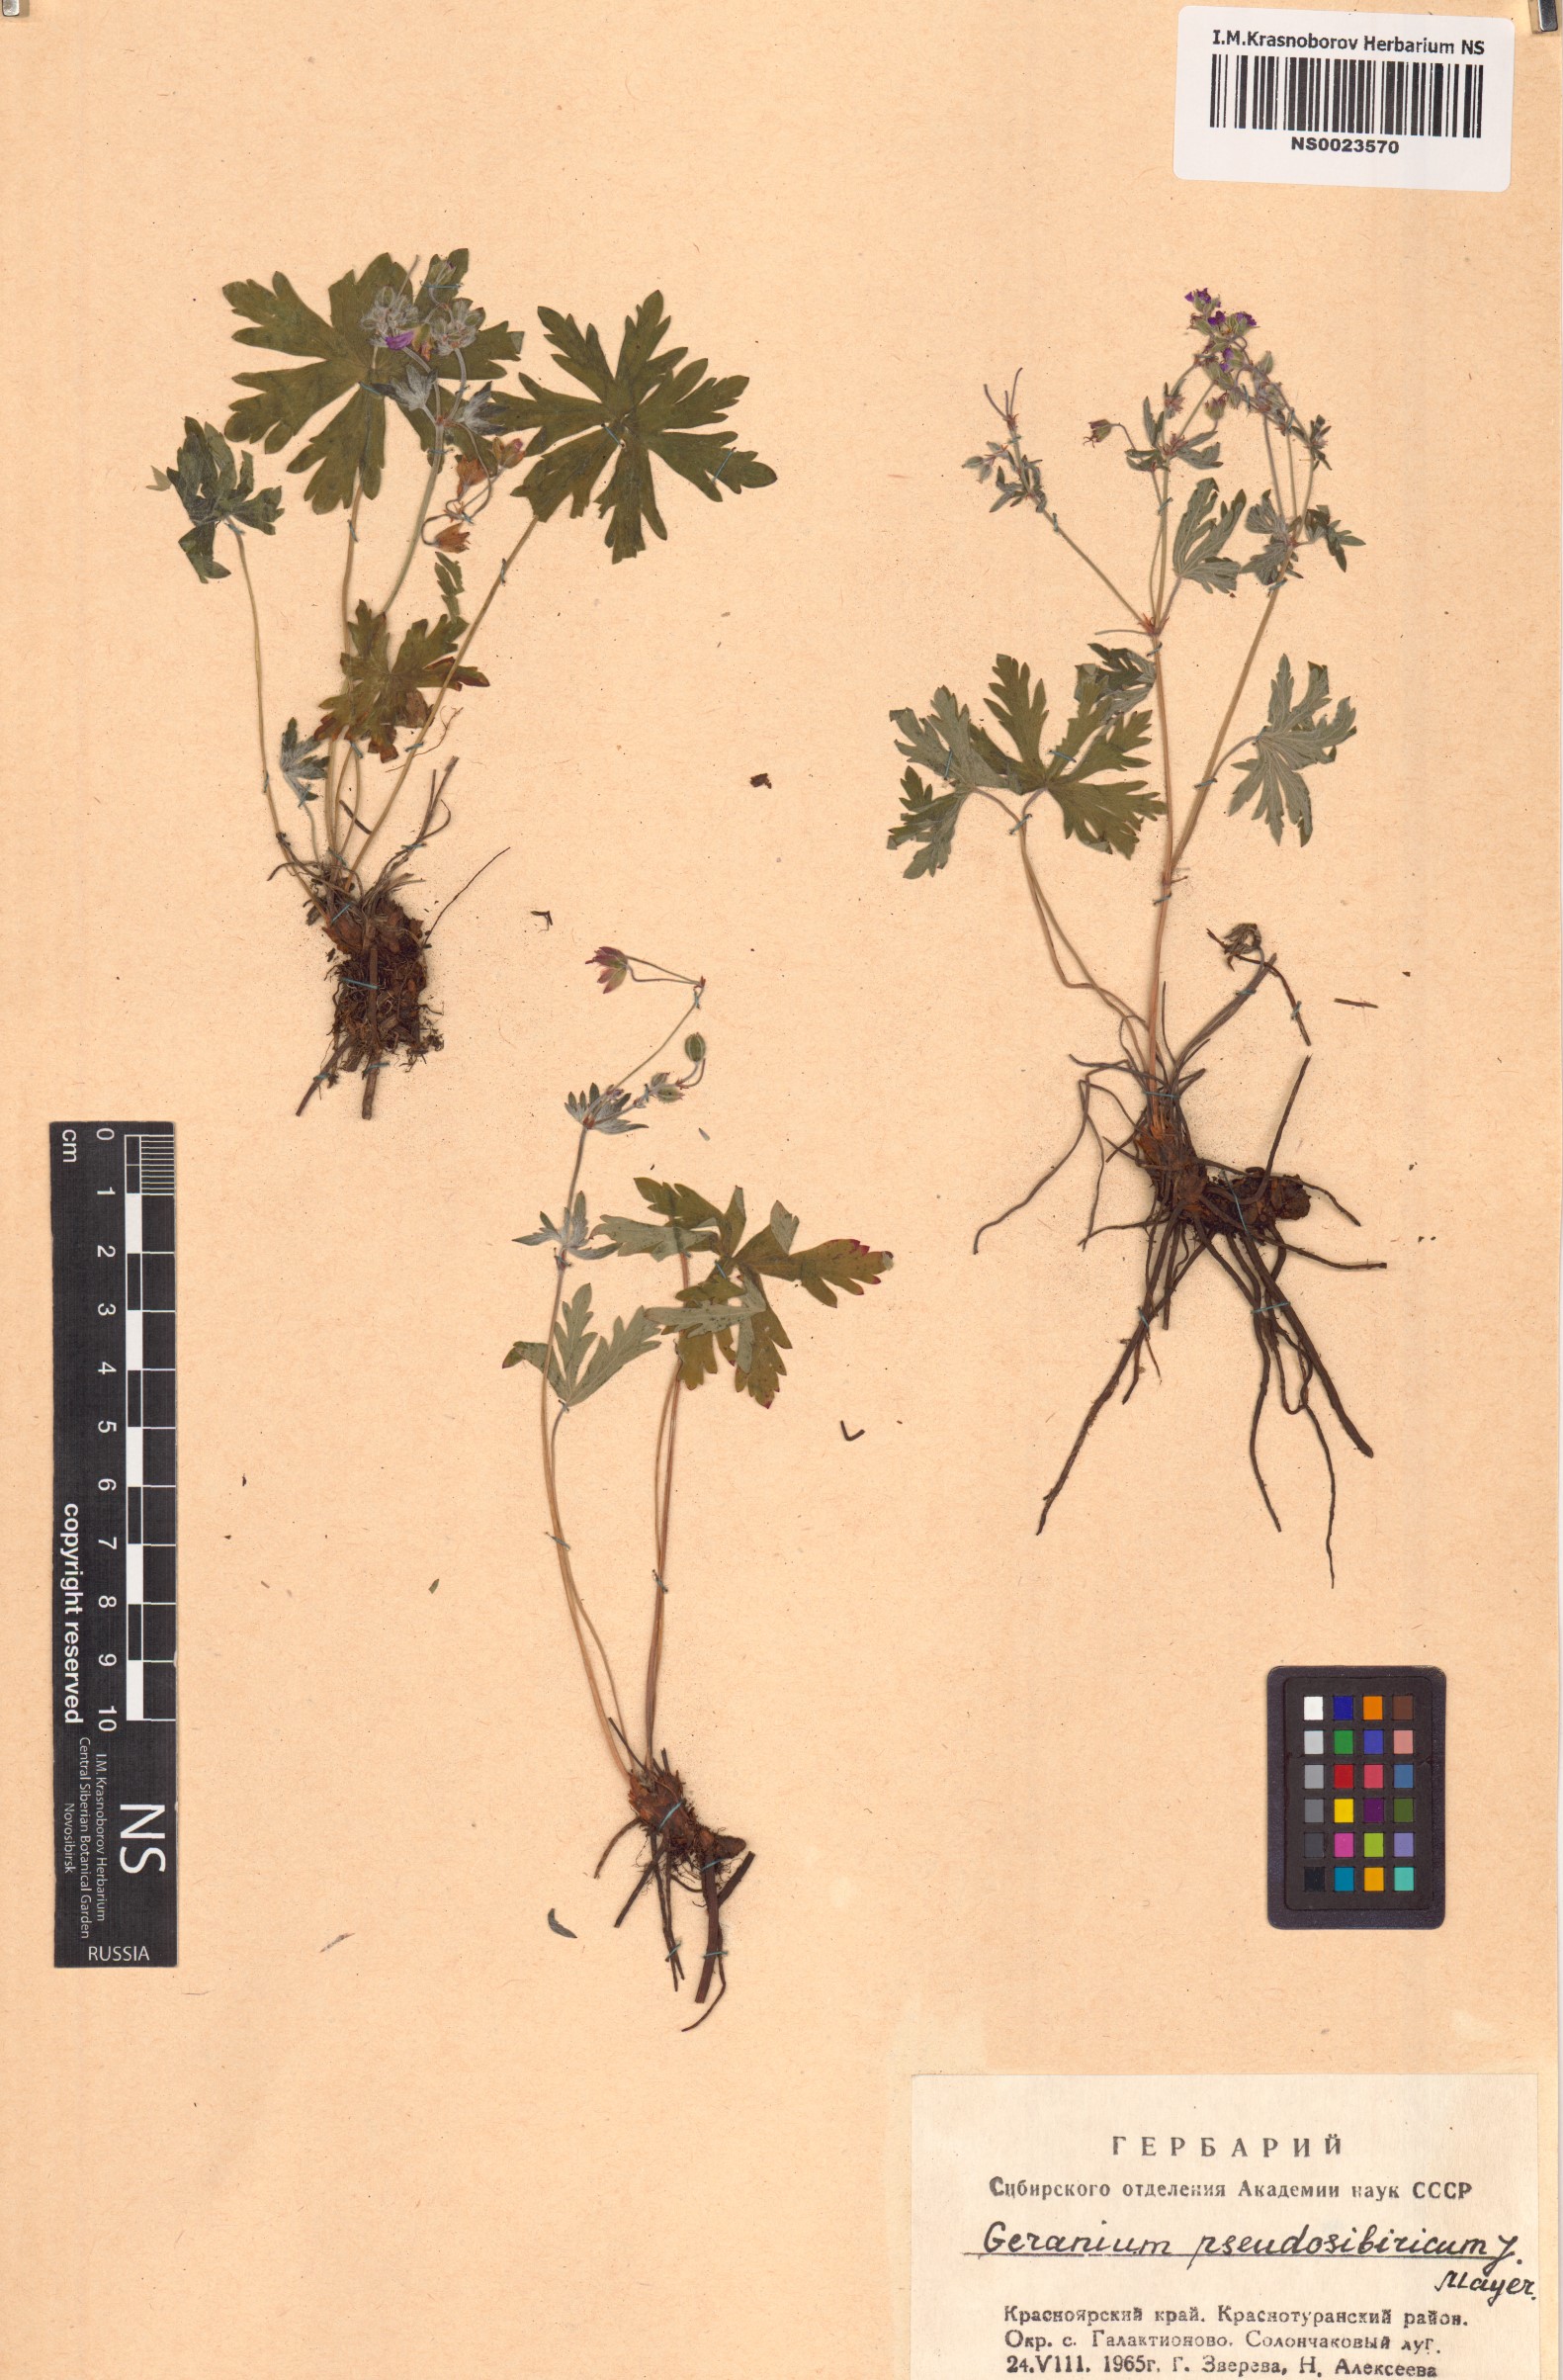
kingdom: Plantae
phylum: Tracheophyta
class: Magnoliopsida
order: Geraniales
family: Geraniaceae
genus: Geranium
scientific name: Geranium pseudosibiricum
